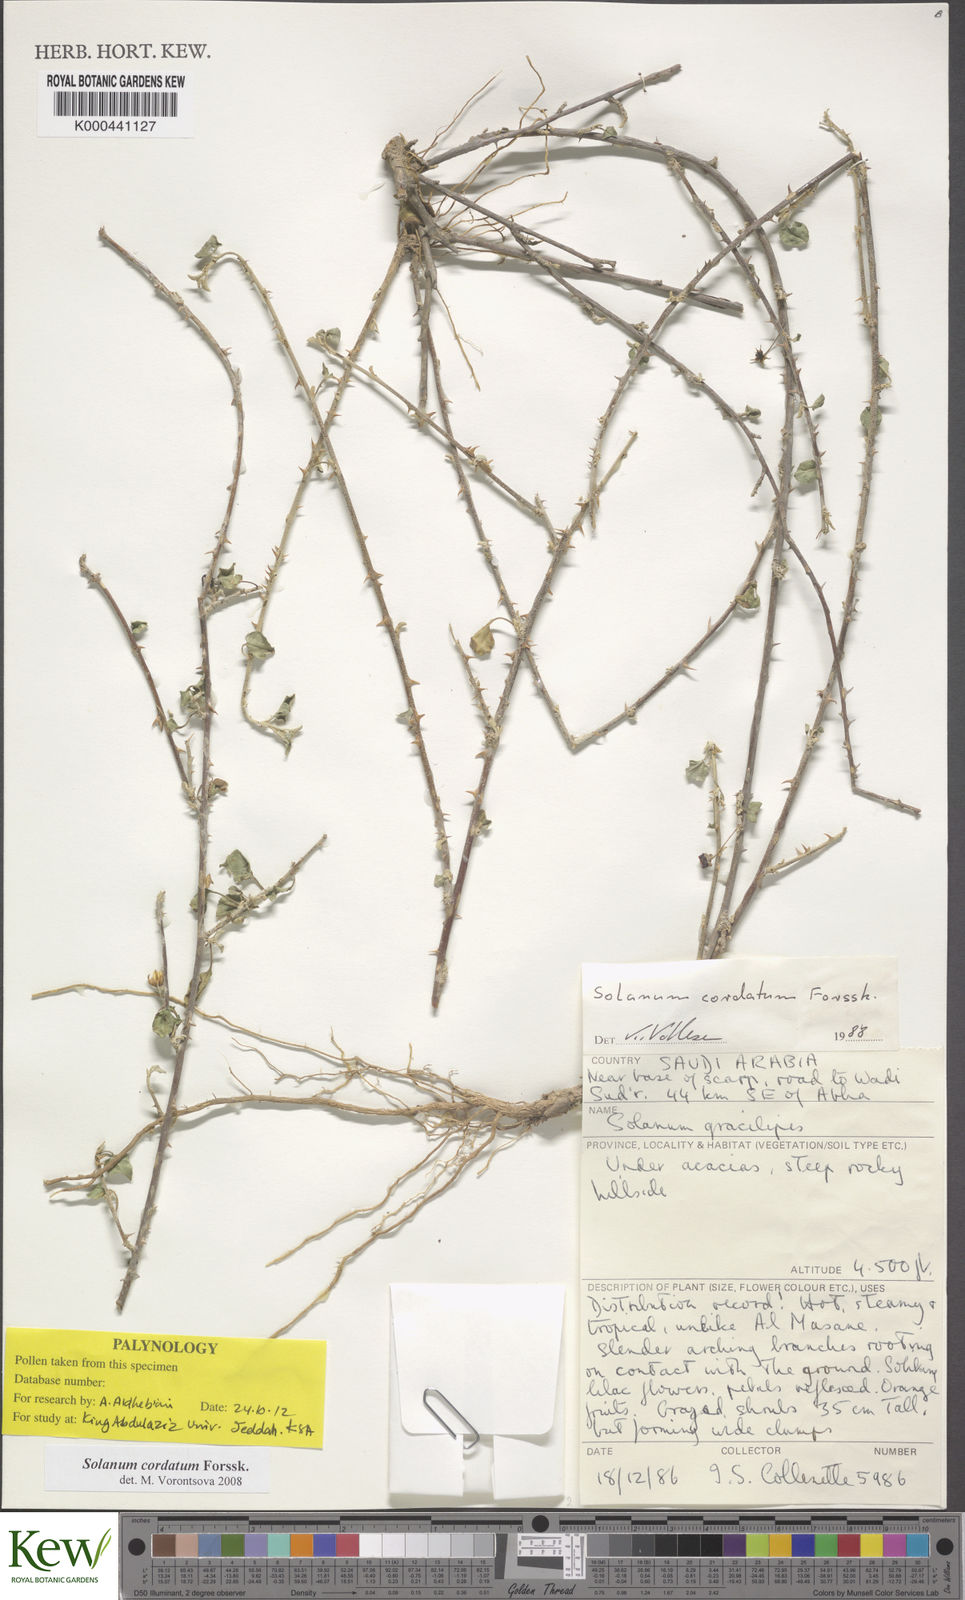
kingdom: Plantae
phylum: Tracheophyta
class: Magnoliopsida
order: Solanales
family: Solanaceae
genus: Solanum
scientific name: Solanum cordatum
